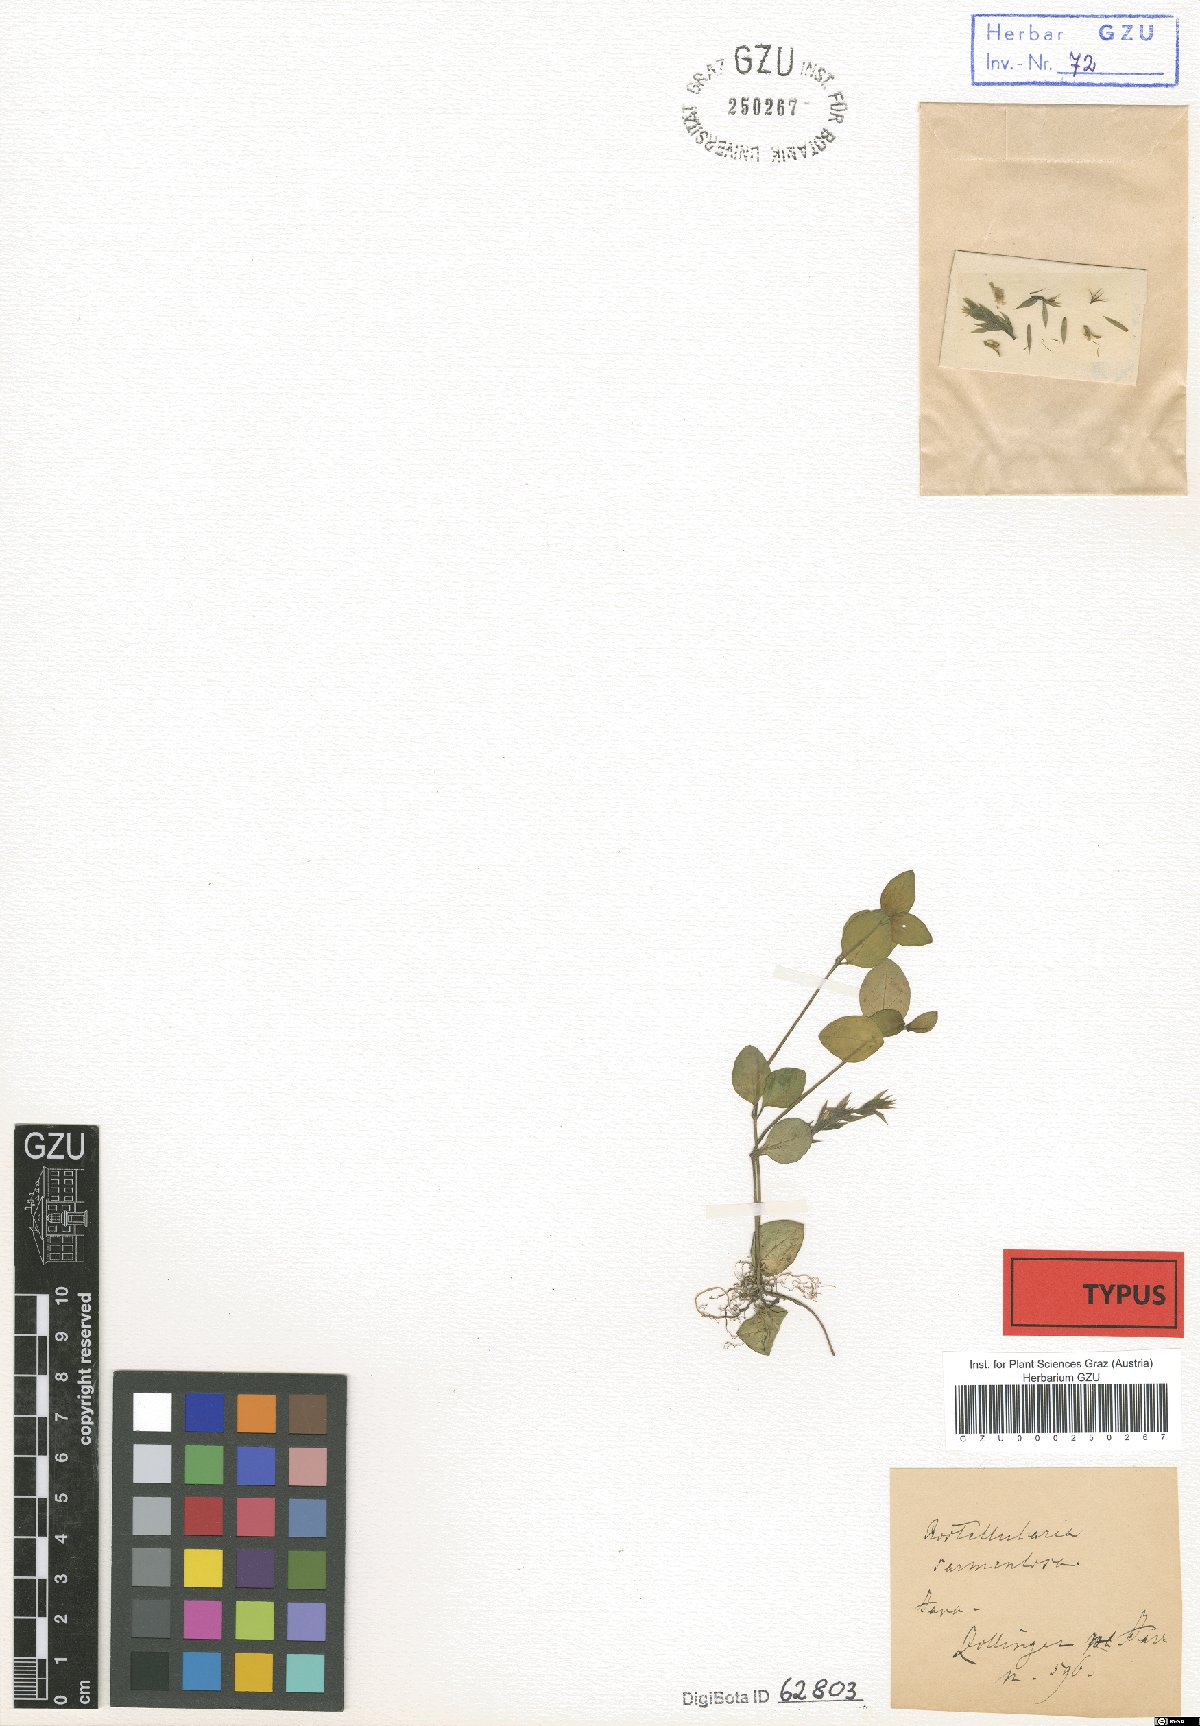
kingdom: Plantae
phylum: Tracheophyta
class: Magnoliopsida
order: Lamiales
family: Acanthaceae
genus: Rostellularia
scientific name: Rostellularia procumbens
